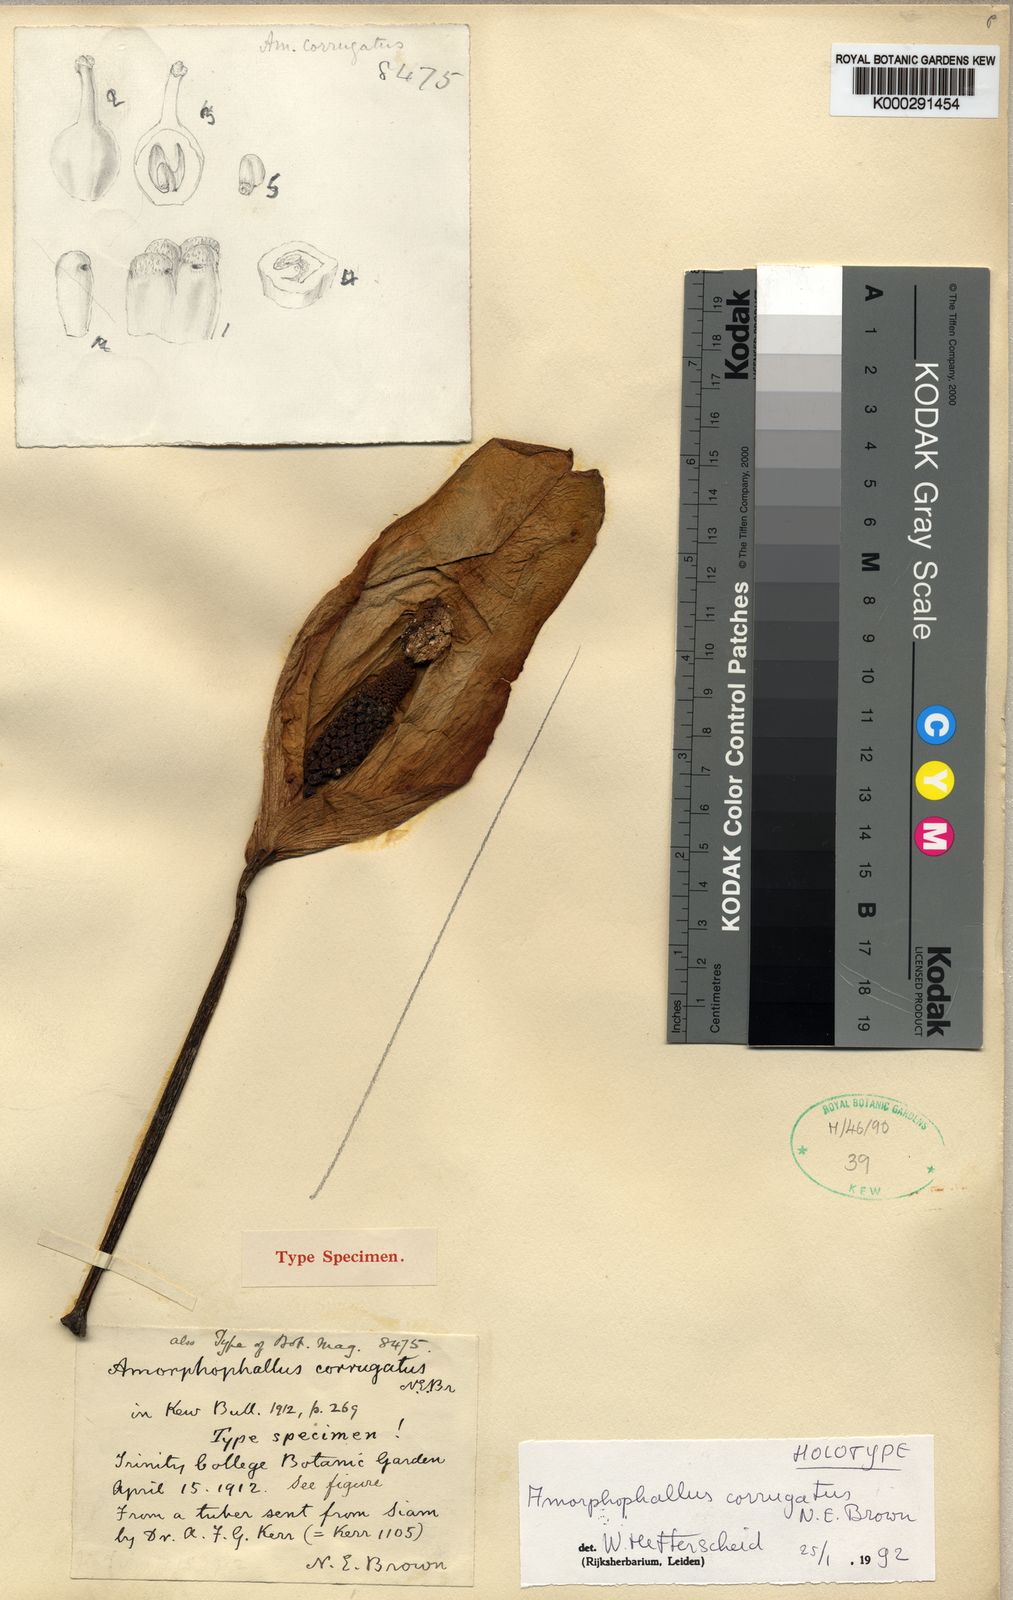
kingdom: Plantae
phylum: Tracheophyta
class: Liliopsida
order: Alismatales
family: Araceae
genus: Amorphophallus
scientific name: Amorphophallus corrugatus
